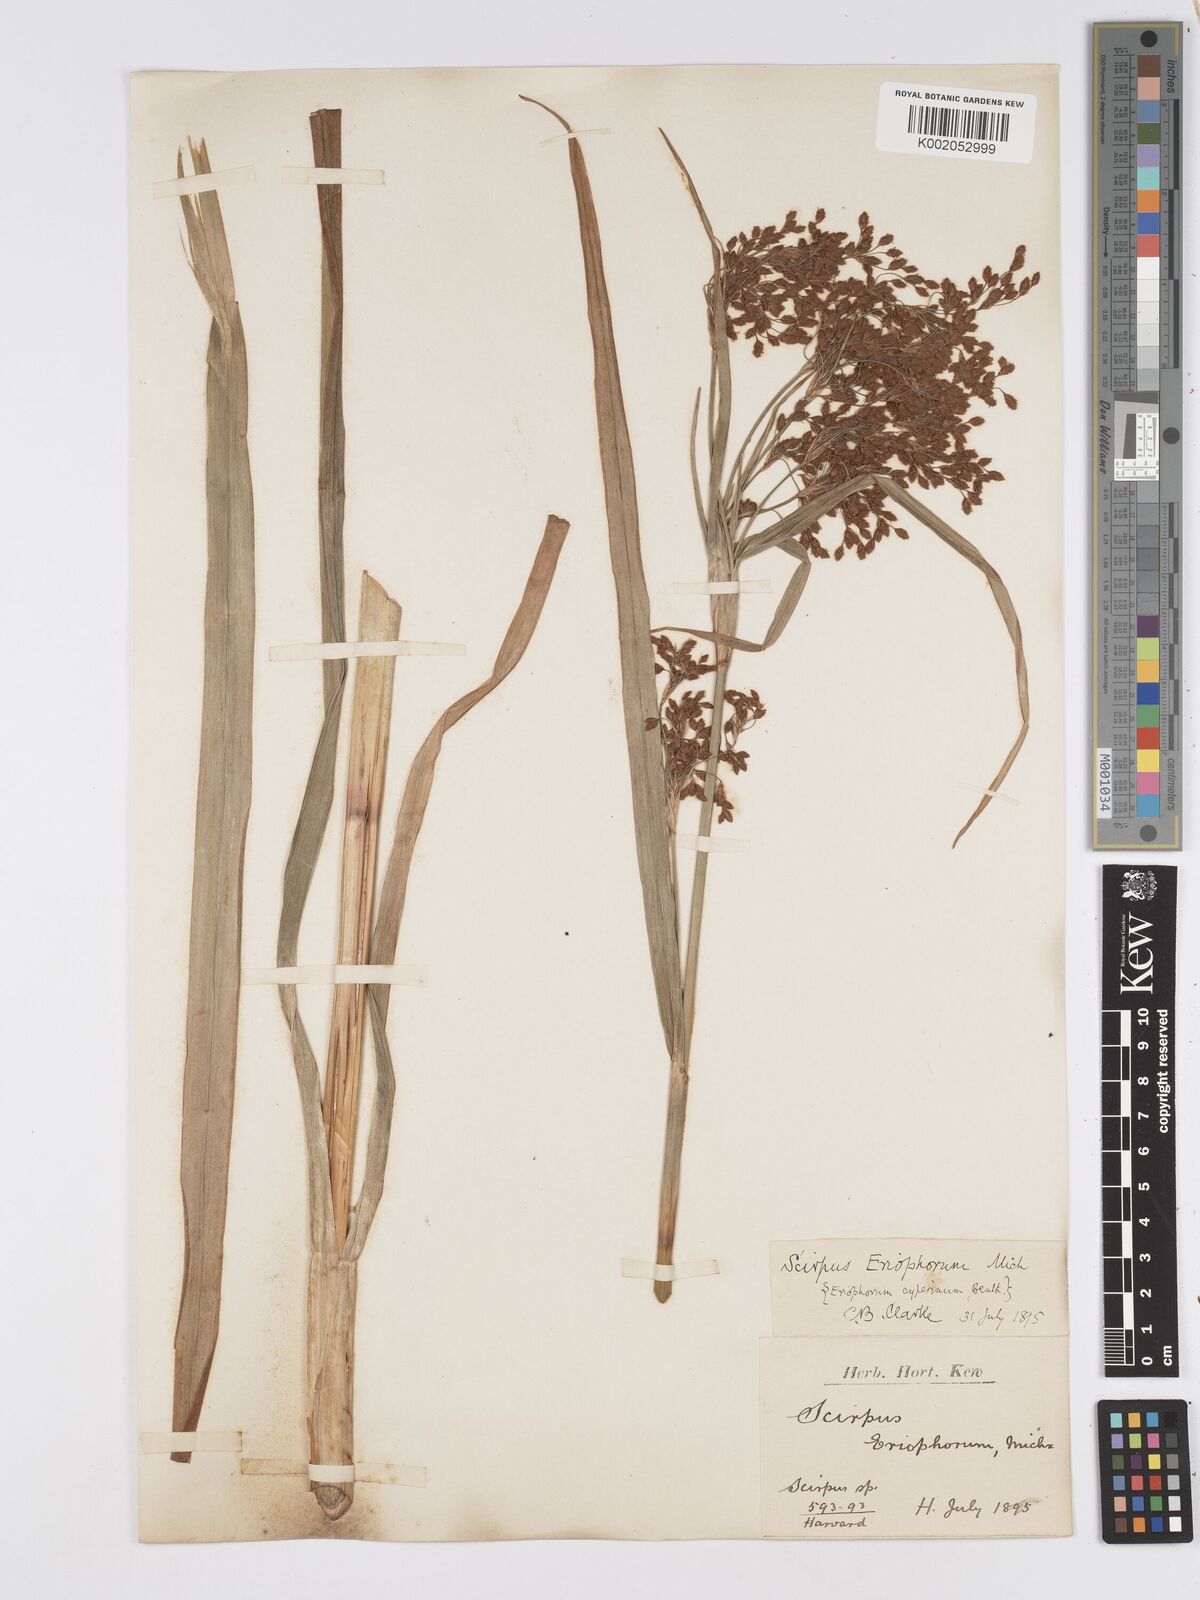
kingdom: Plantae
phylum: Tracheophyta
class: Liliopsida
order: Poales
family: Cyperaceae
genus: Scirpus
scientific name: Scirpus cyperinus
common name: Black-sheathed bulrush
